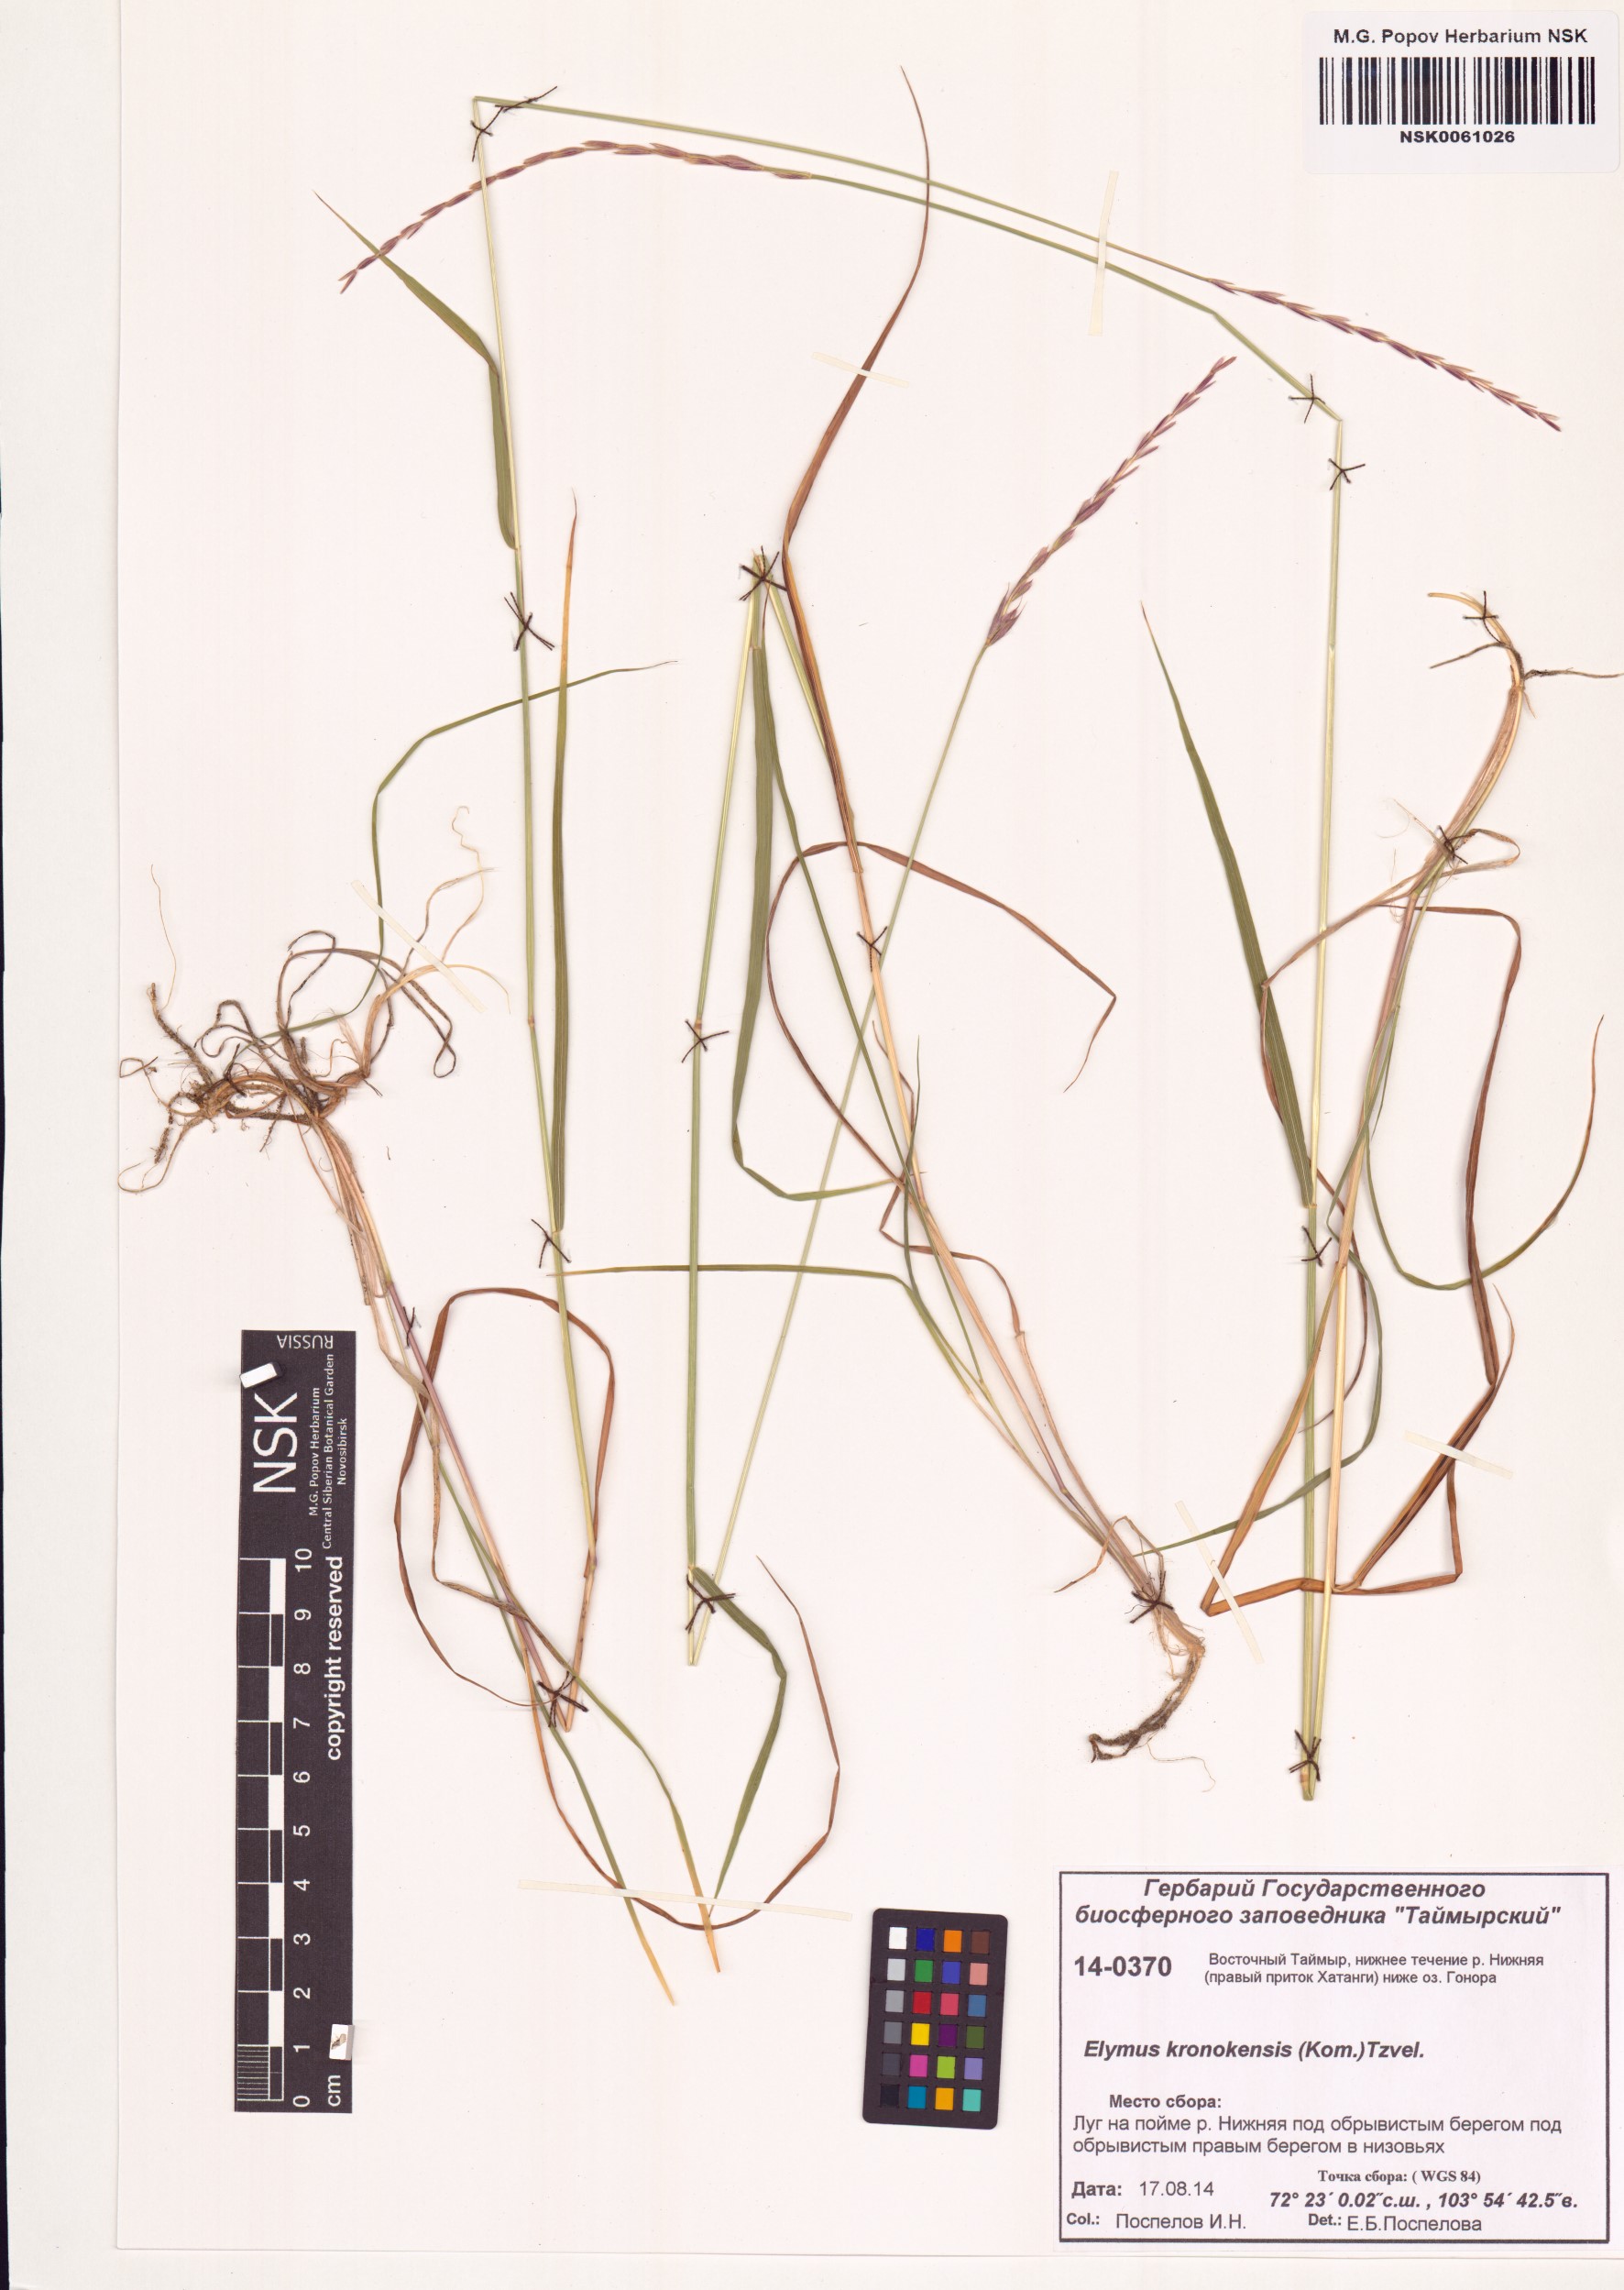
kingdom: Plantae
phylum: Tracheophyta
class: Liliopsida
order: Poales
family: Poaceae
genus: Elymus
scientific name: Elymus macrourus
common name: Northern wheatgrass
